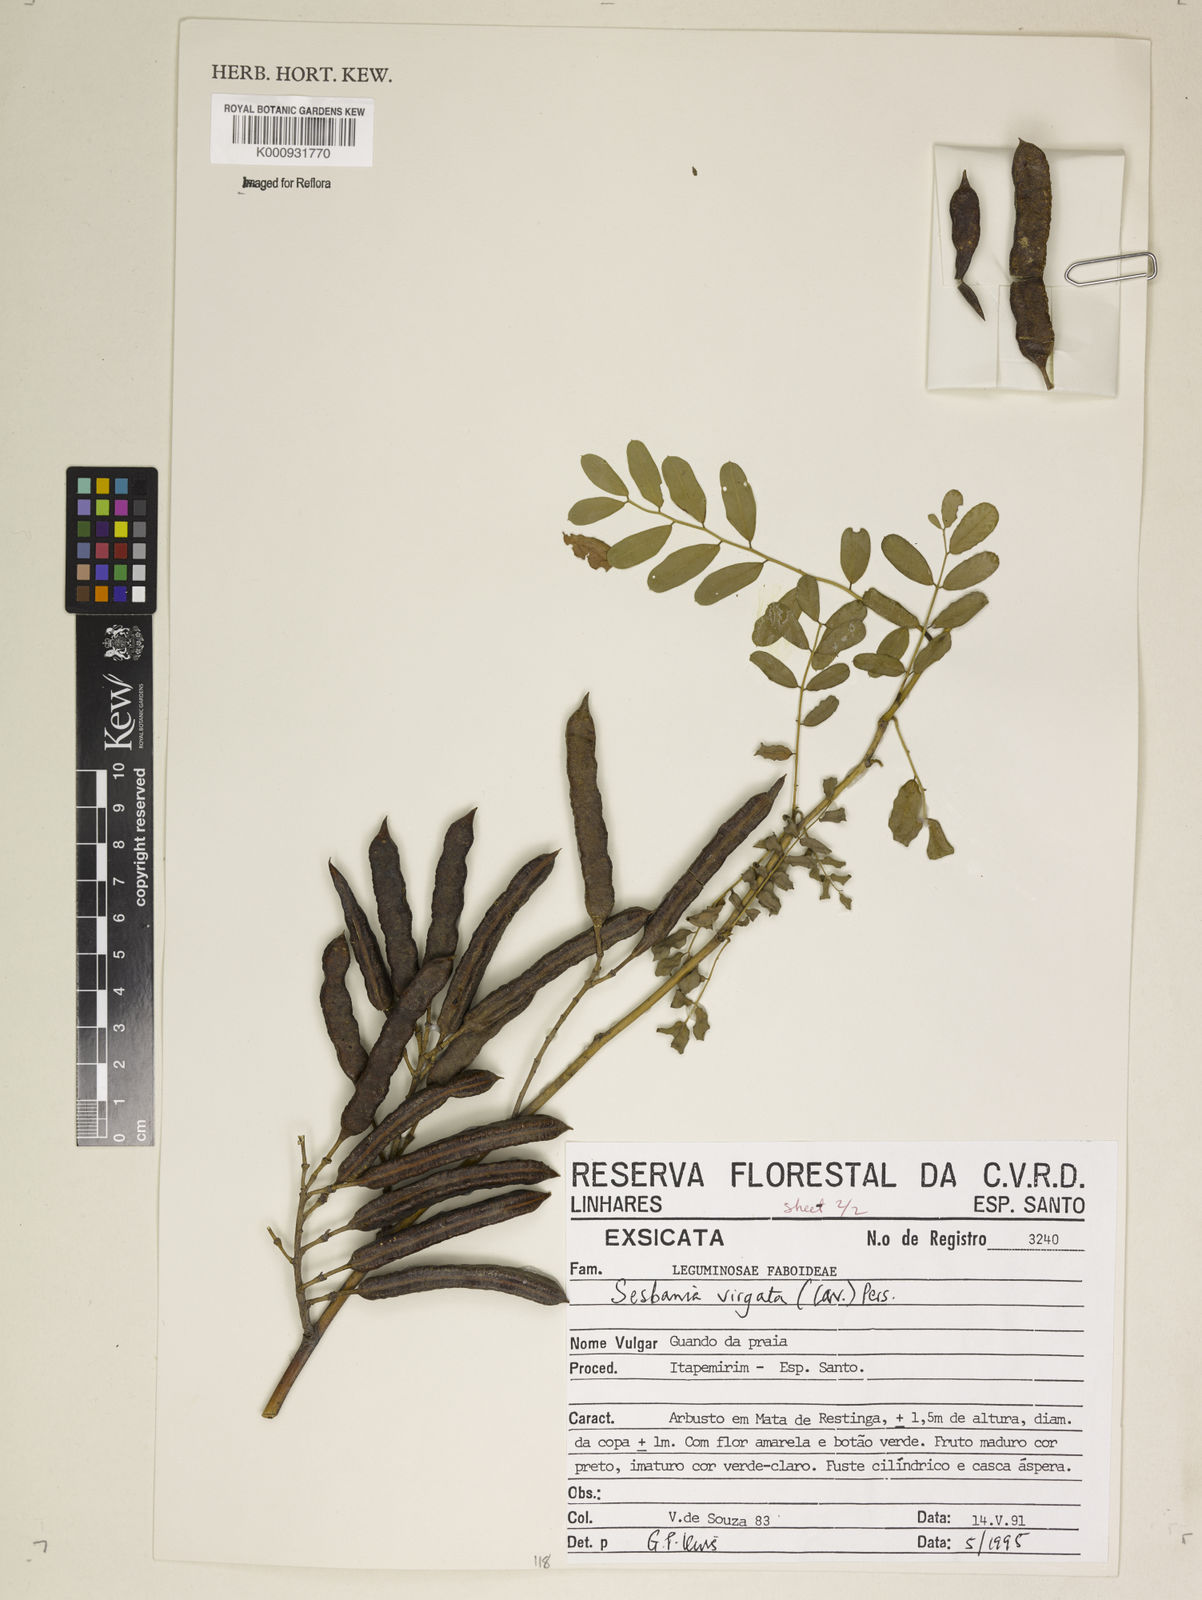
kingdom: Plantae
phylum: Tracheophyta
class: Magnoliopsida
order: Fabales
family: Fabaceae
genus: Sesbania
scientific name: Sesbania
